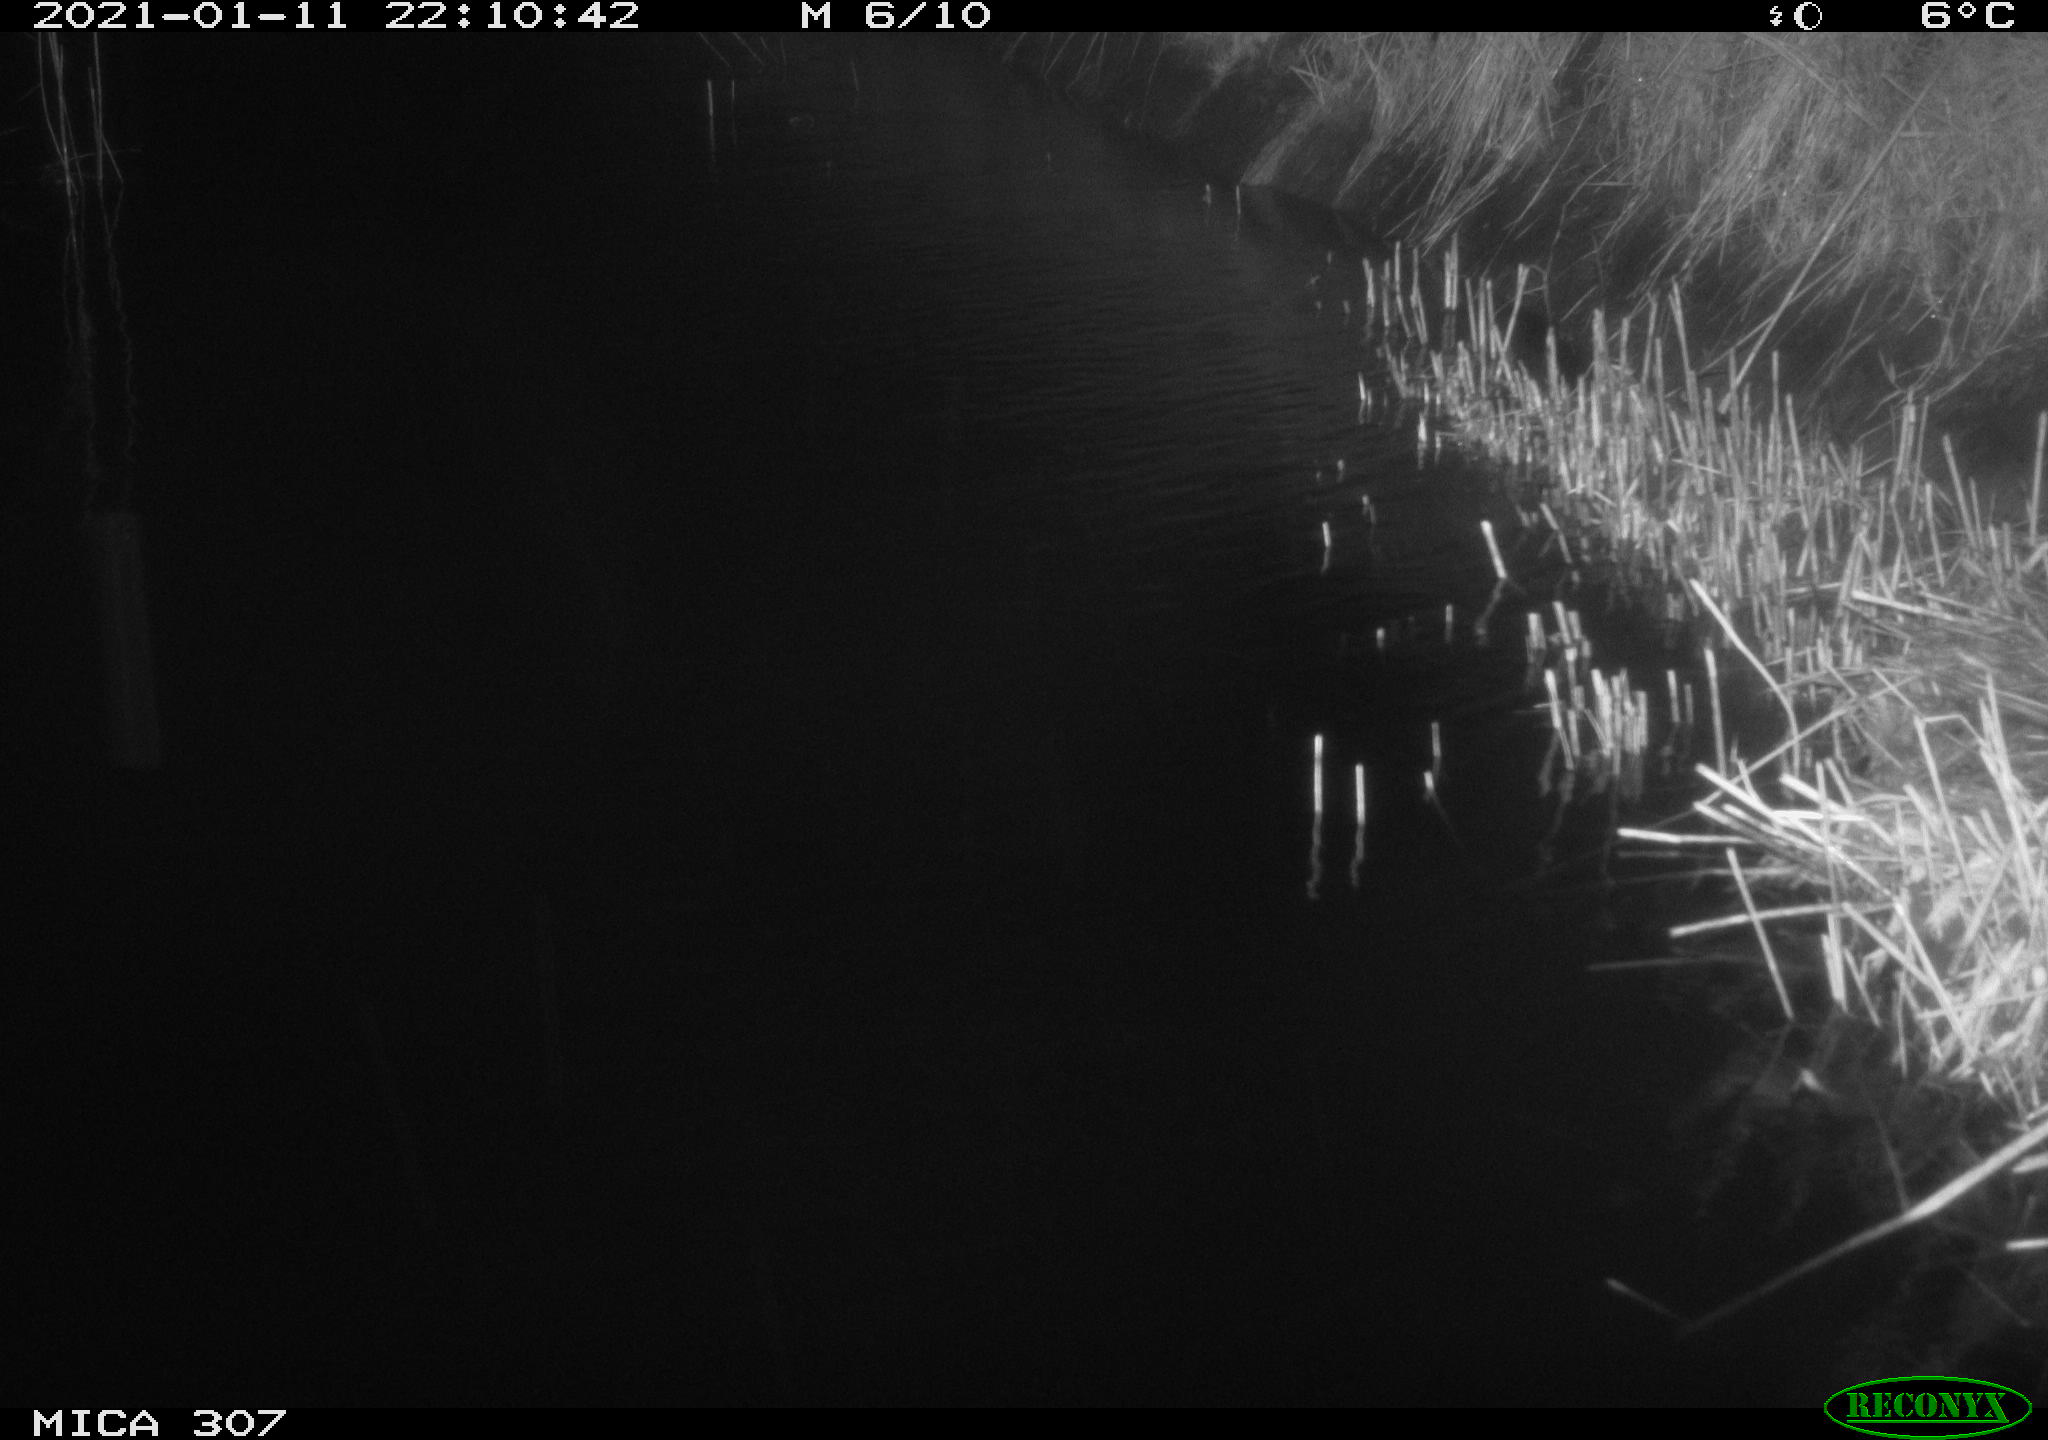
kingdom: Animalia
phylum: Chordata
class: Mammalia
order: Rodentia
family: Muridae
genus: Rattus
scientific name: Rattus norvegicus
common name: Brown rat
